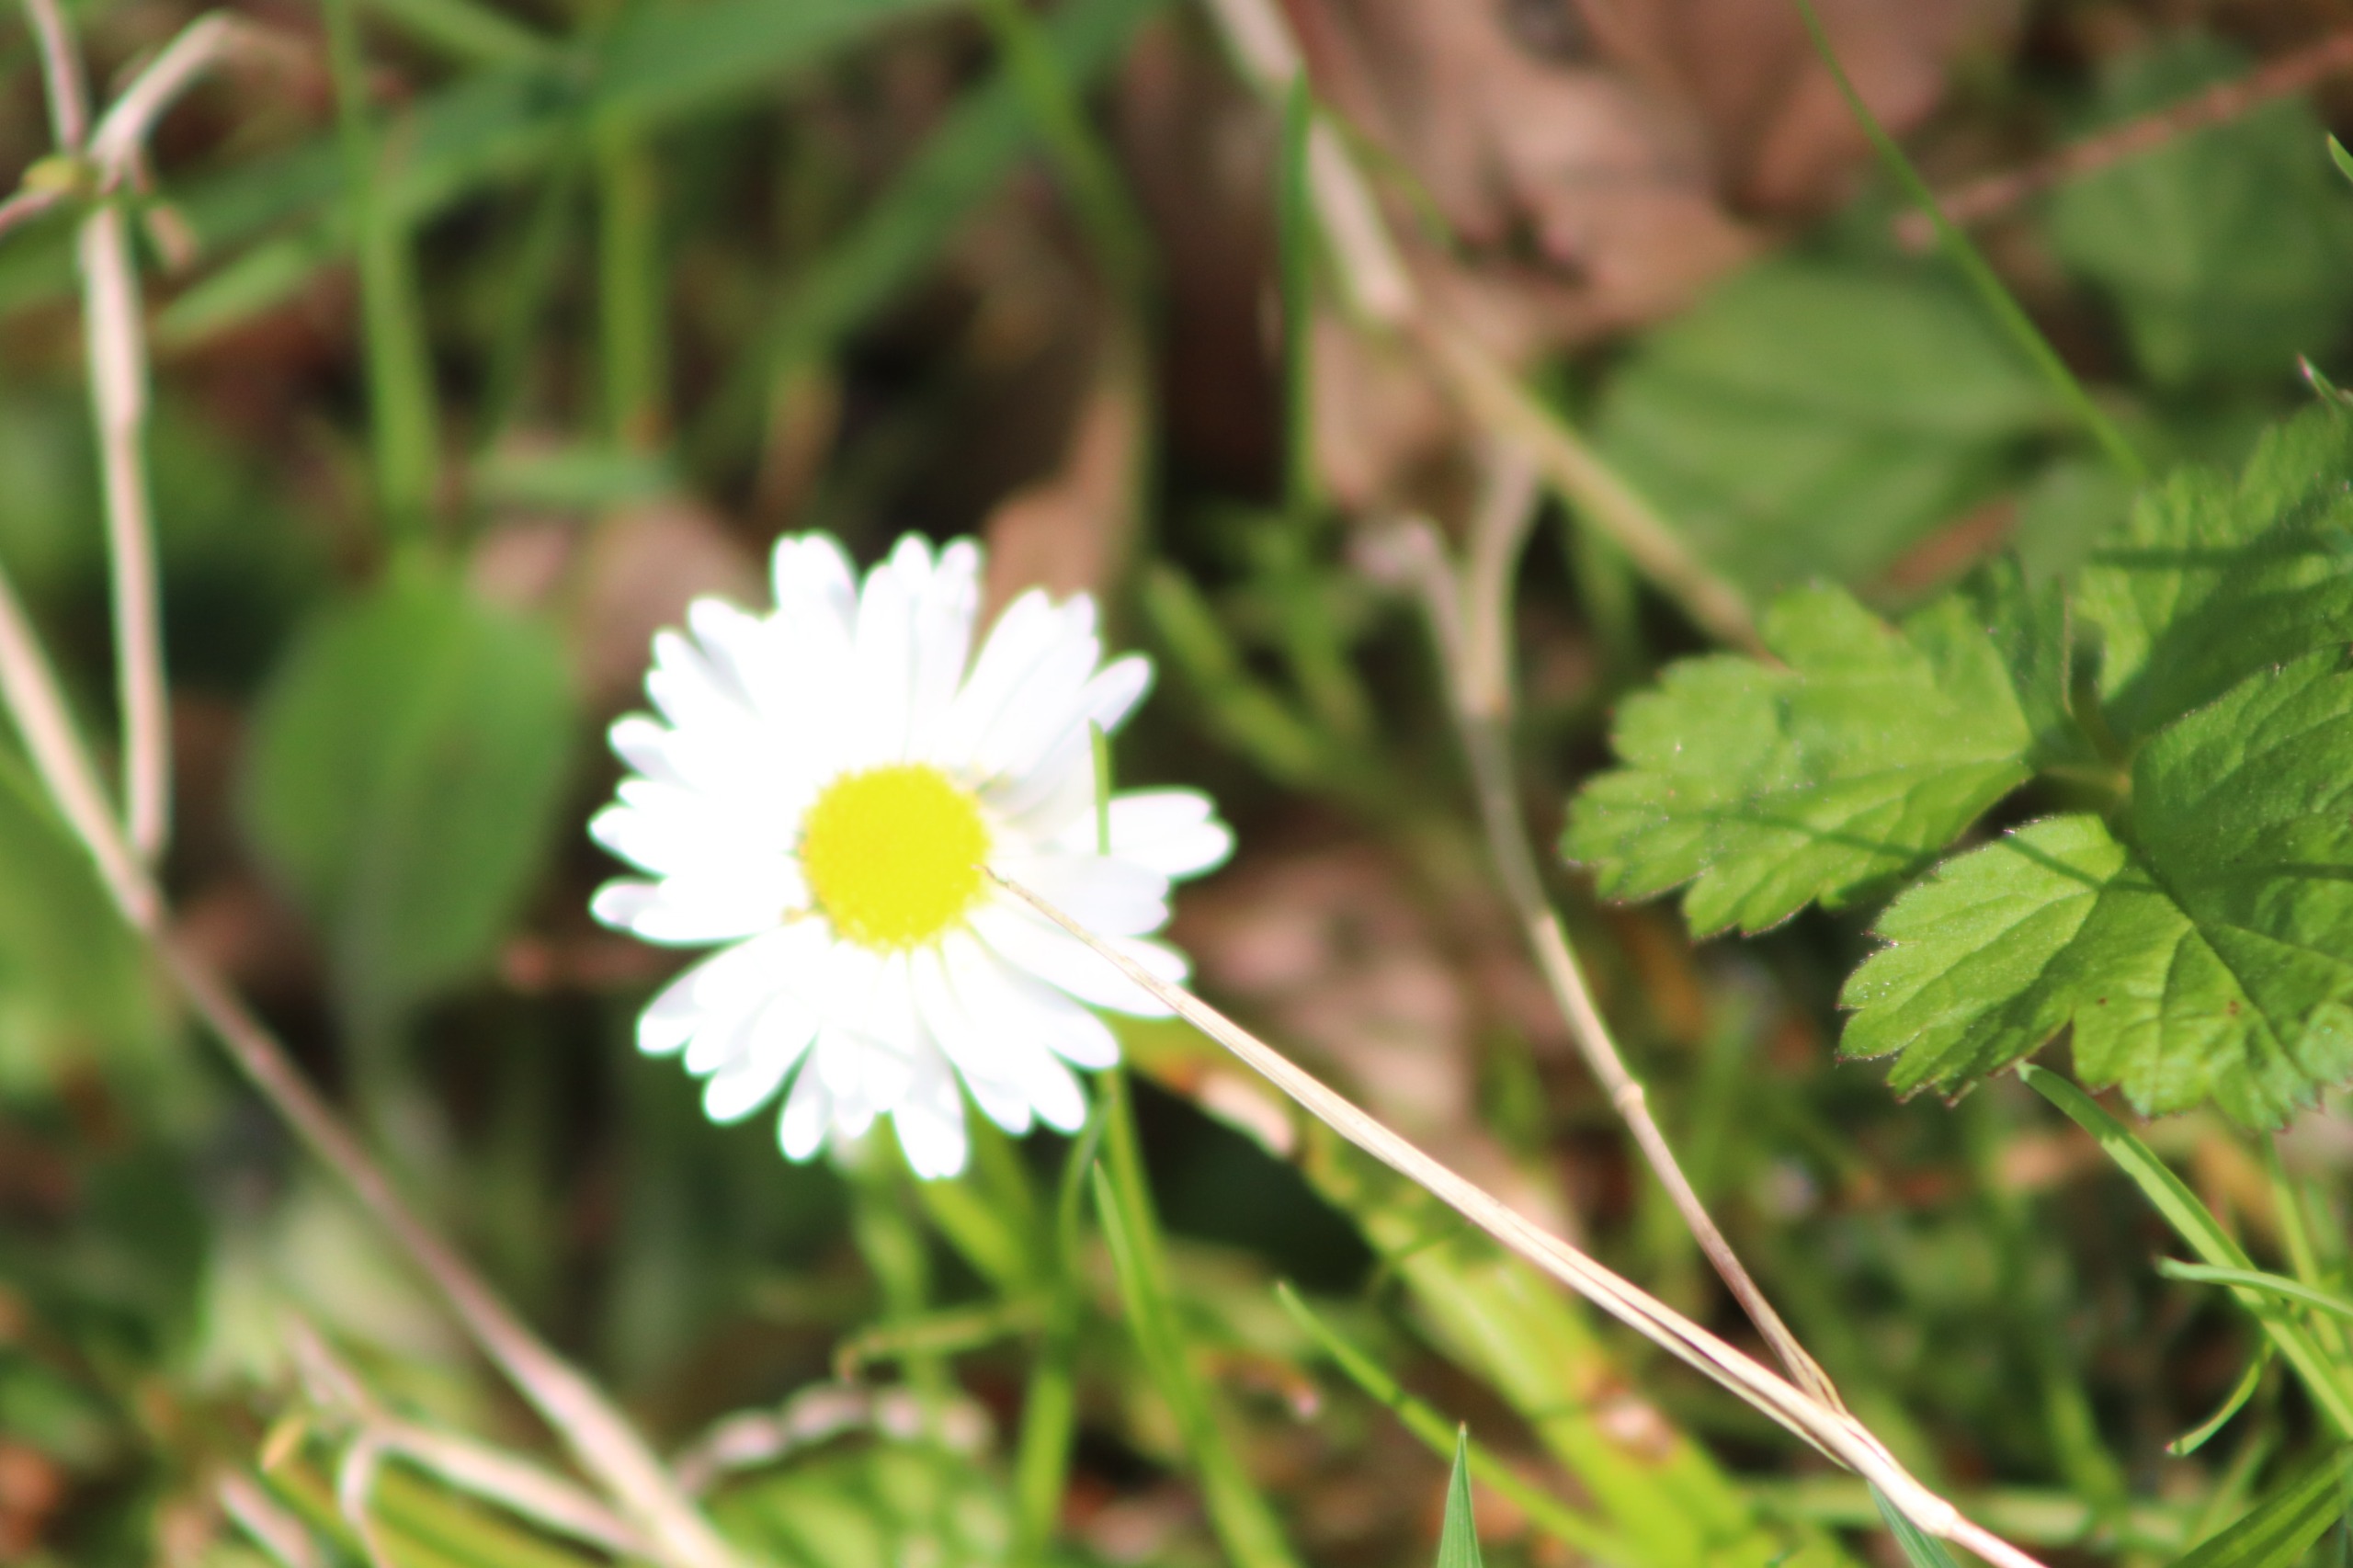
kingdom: Plantae
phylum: Tracheophyta
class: Magnoliopsida
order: Asterales
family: Asteraceae
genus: Bellis
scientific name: Bellis perennis
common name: Tusindfryd
